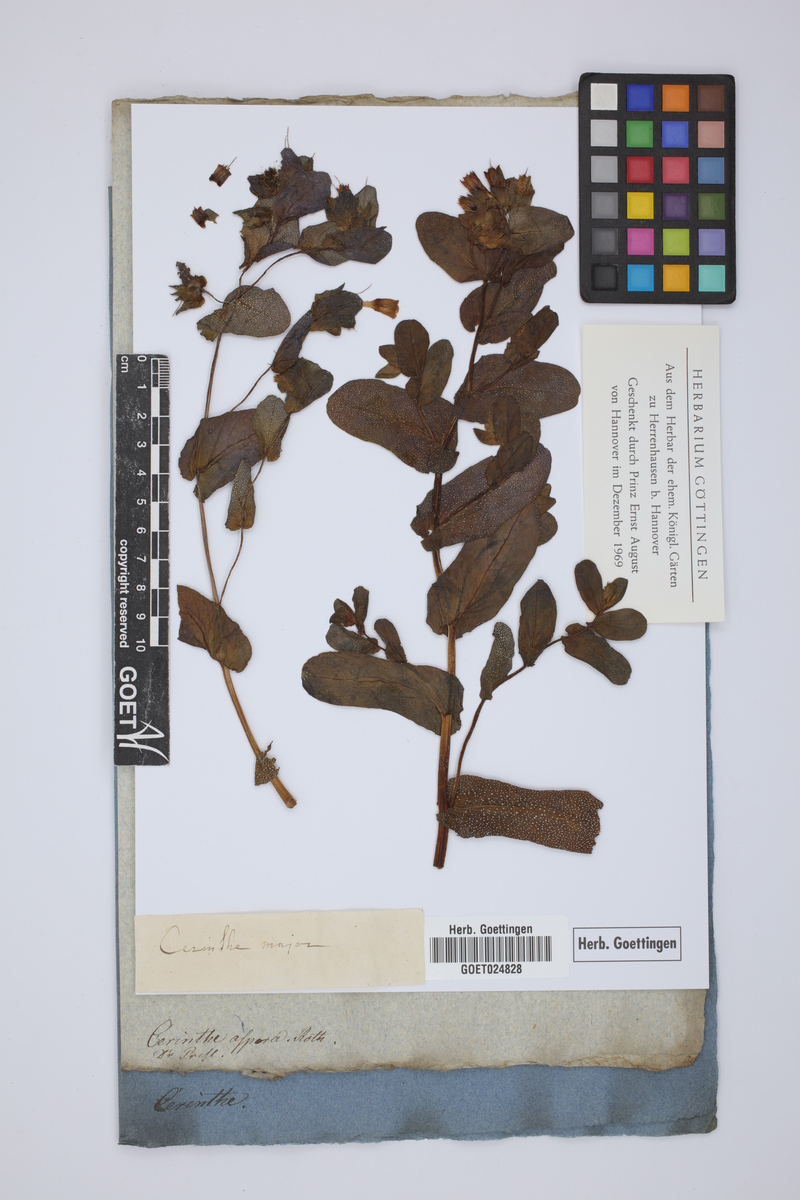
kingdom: Plantae
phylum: Tracheophyta
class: Magnoliopsida
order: Boraginales
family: Boraginaceae
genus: Cerinthe
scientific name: Cerinthe major
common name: Greater honeywort
